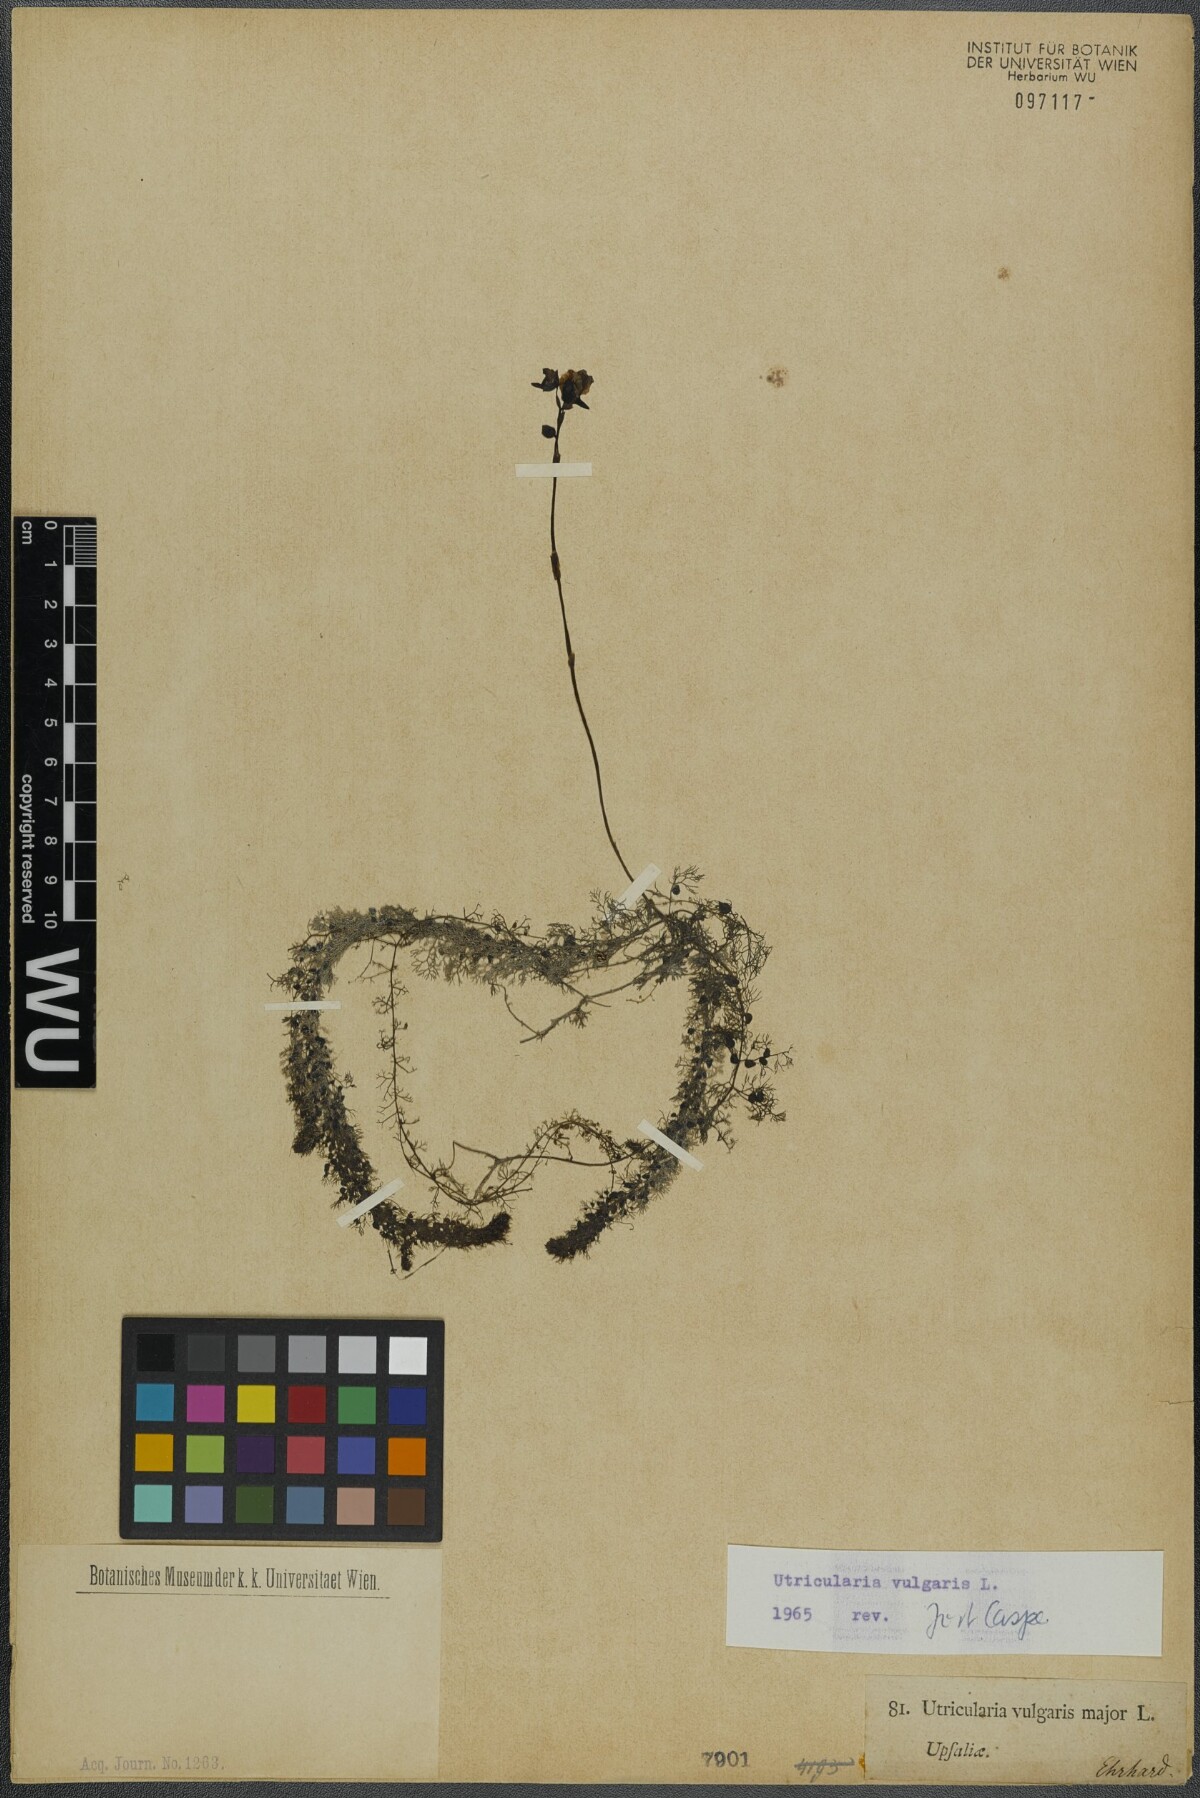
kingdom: Plantae
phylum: Tracheophyta
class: Magnoliopsida
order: Lamiales
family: Lentibulariaceae
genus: Utricularia
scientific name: Utricularia vulgaris
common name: Greater bladderwort
